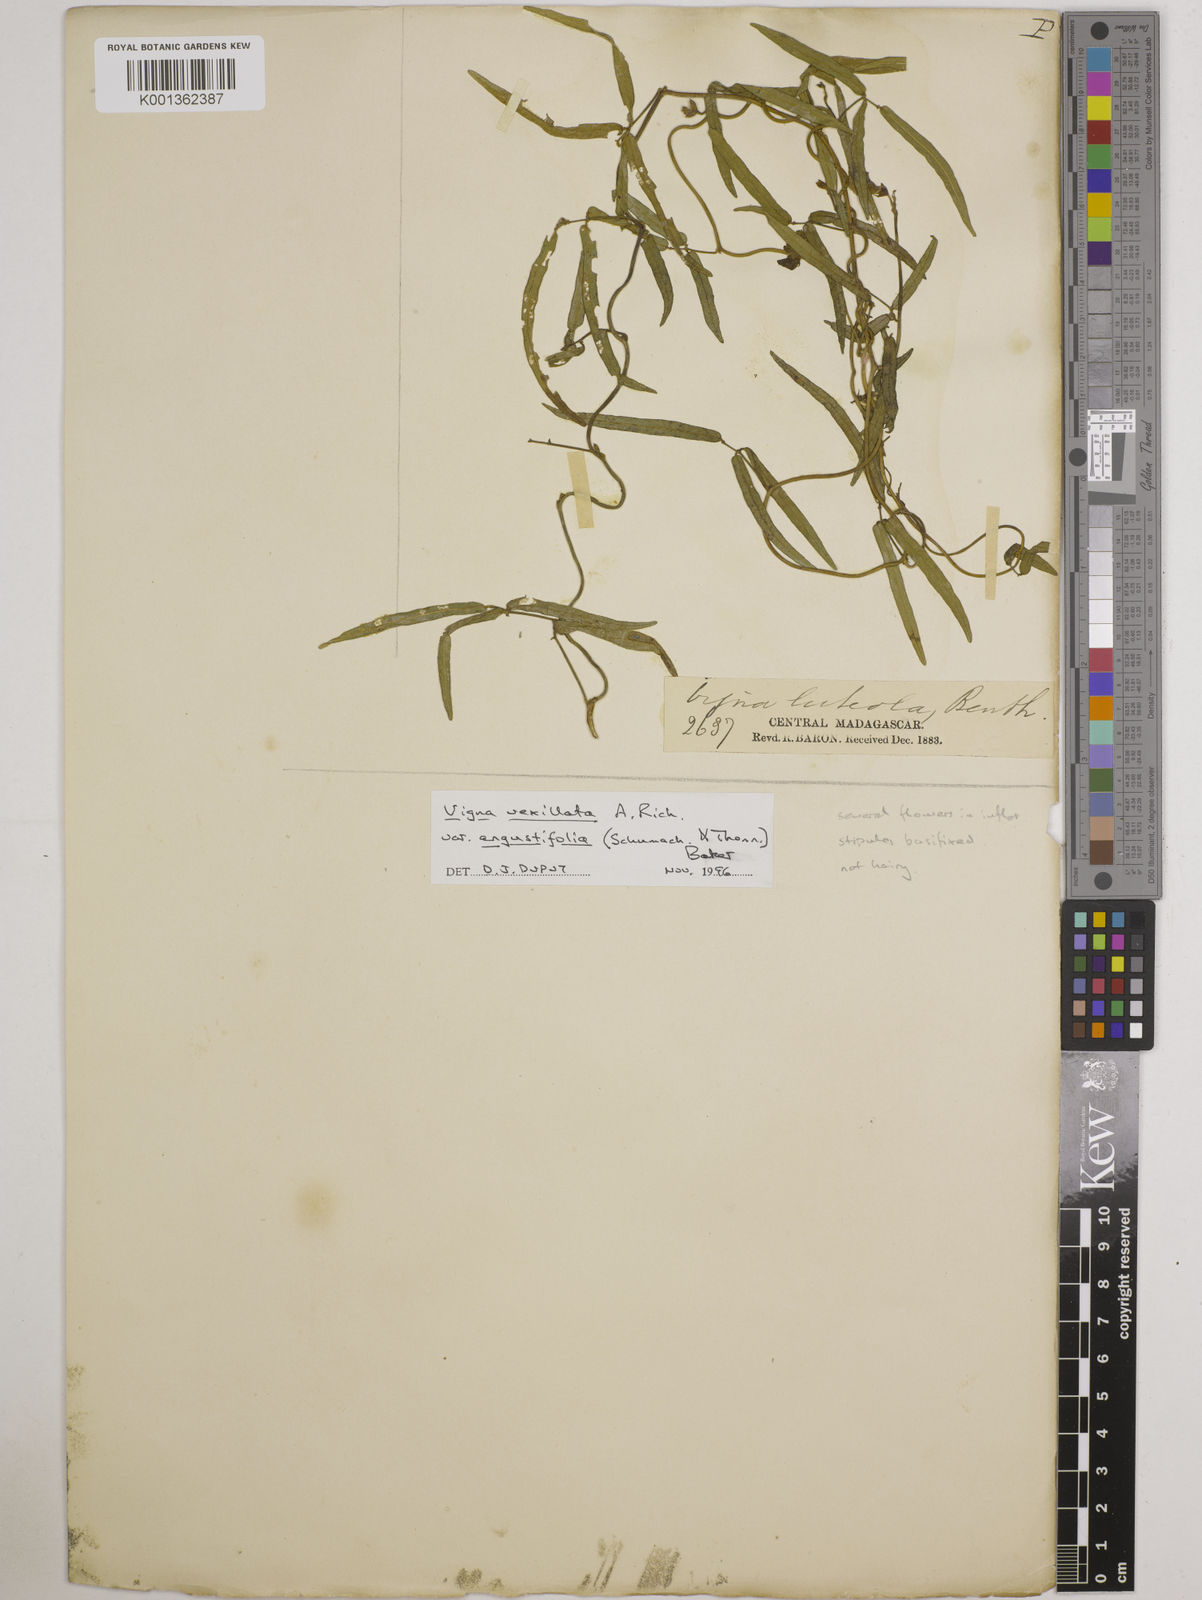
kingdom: Plantae
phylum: Tracheophyta
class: Magnoliopsida
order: Fabales
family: Fabaceae
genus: Vigna
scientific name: Vigna vexillata
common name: Zombi pea
